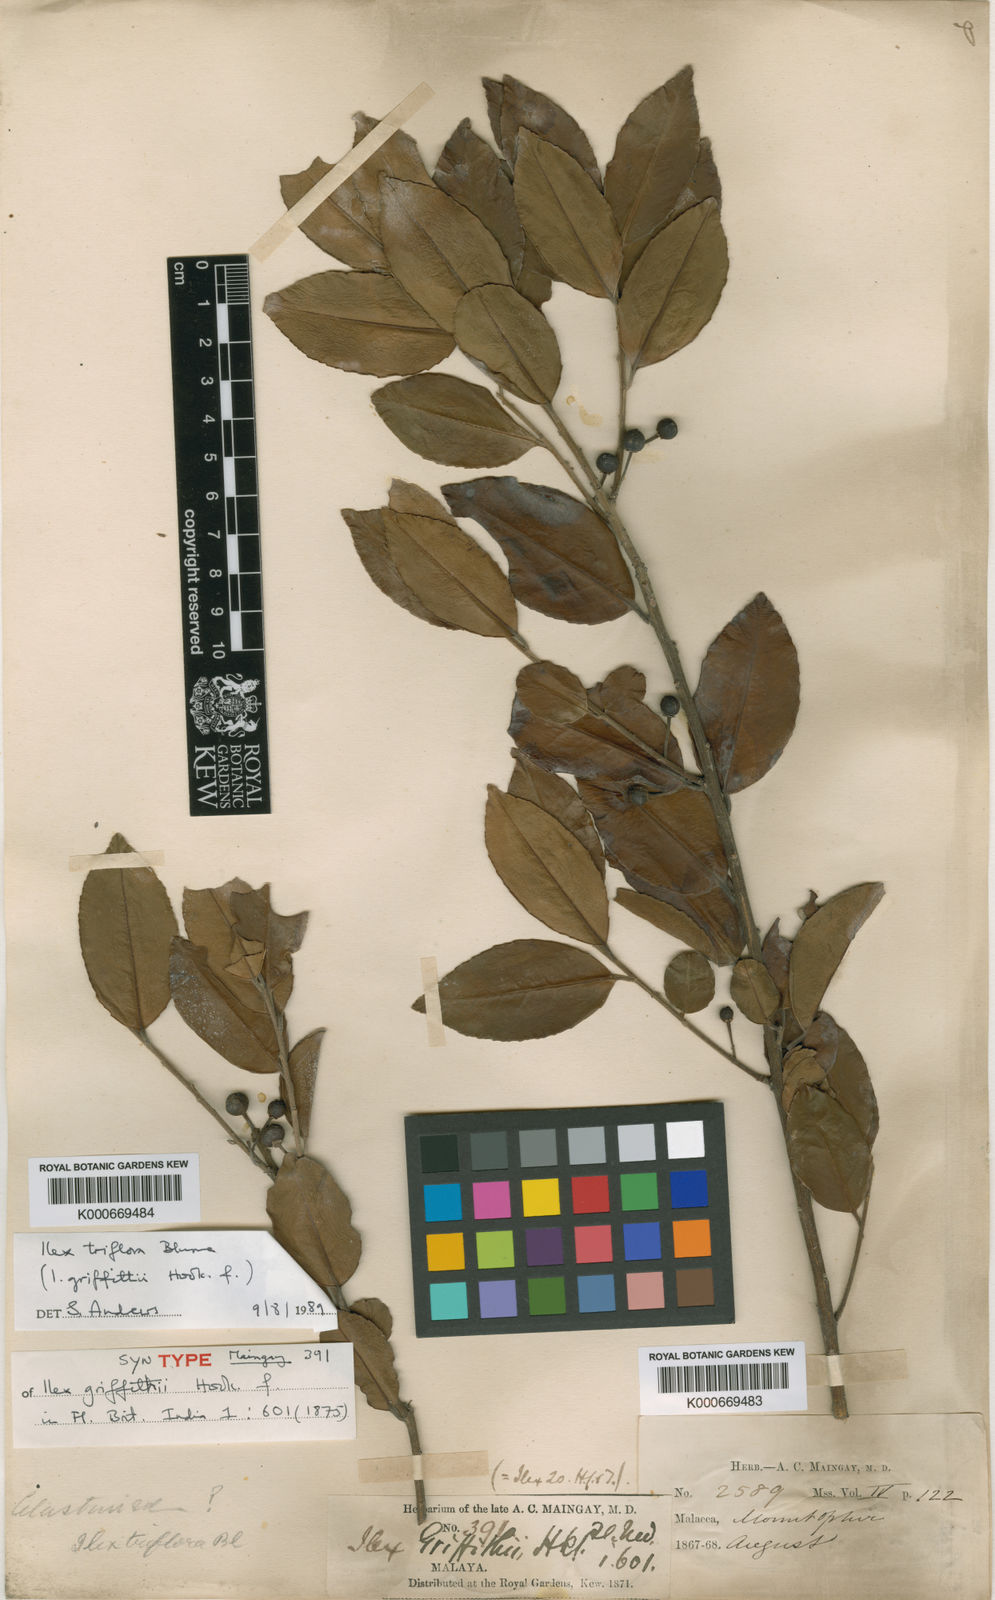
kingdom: Plantae
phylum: Tracheophyta
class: Magnoliopsida
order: Aquifoliales
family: Aquifoliaceae
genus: Ilex
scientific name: Ilex triflora
